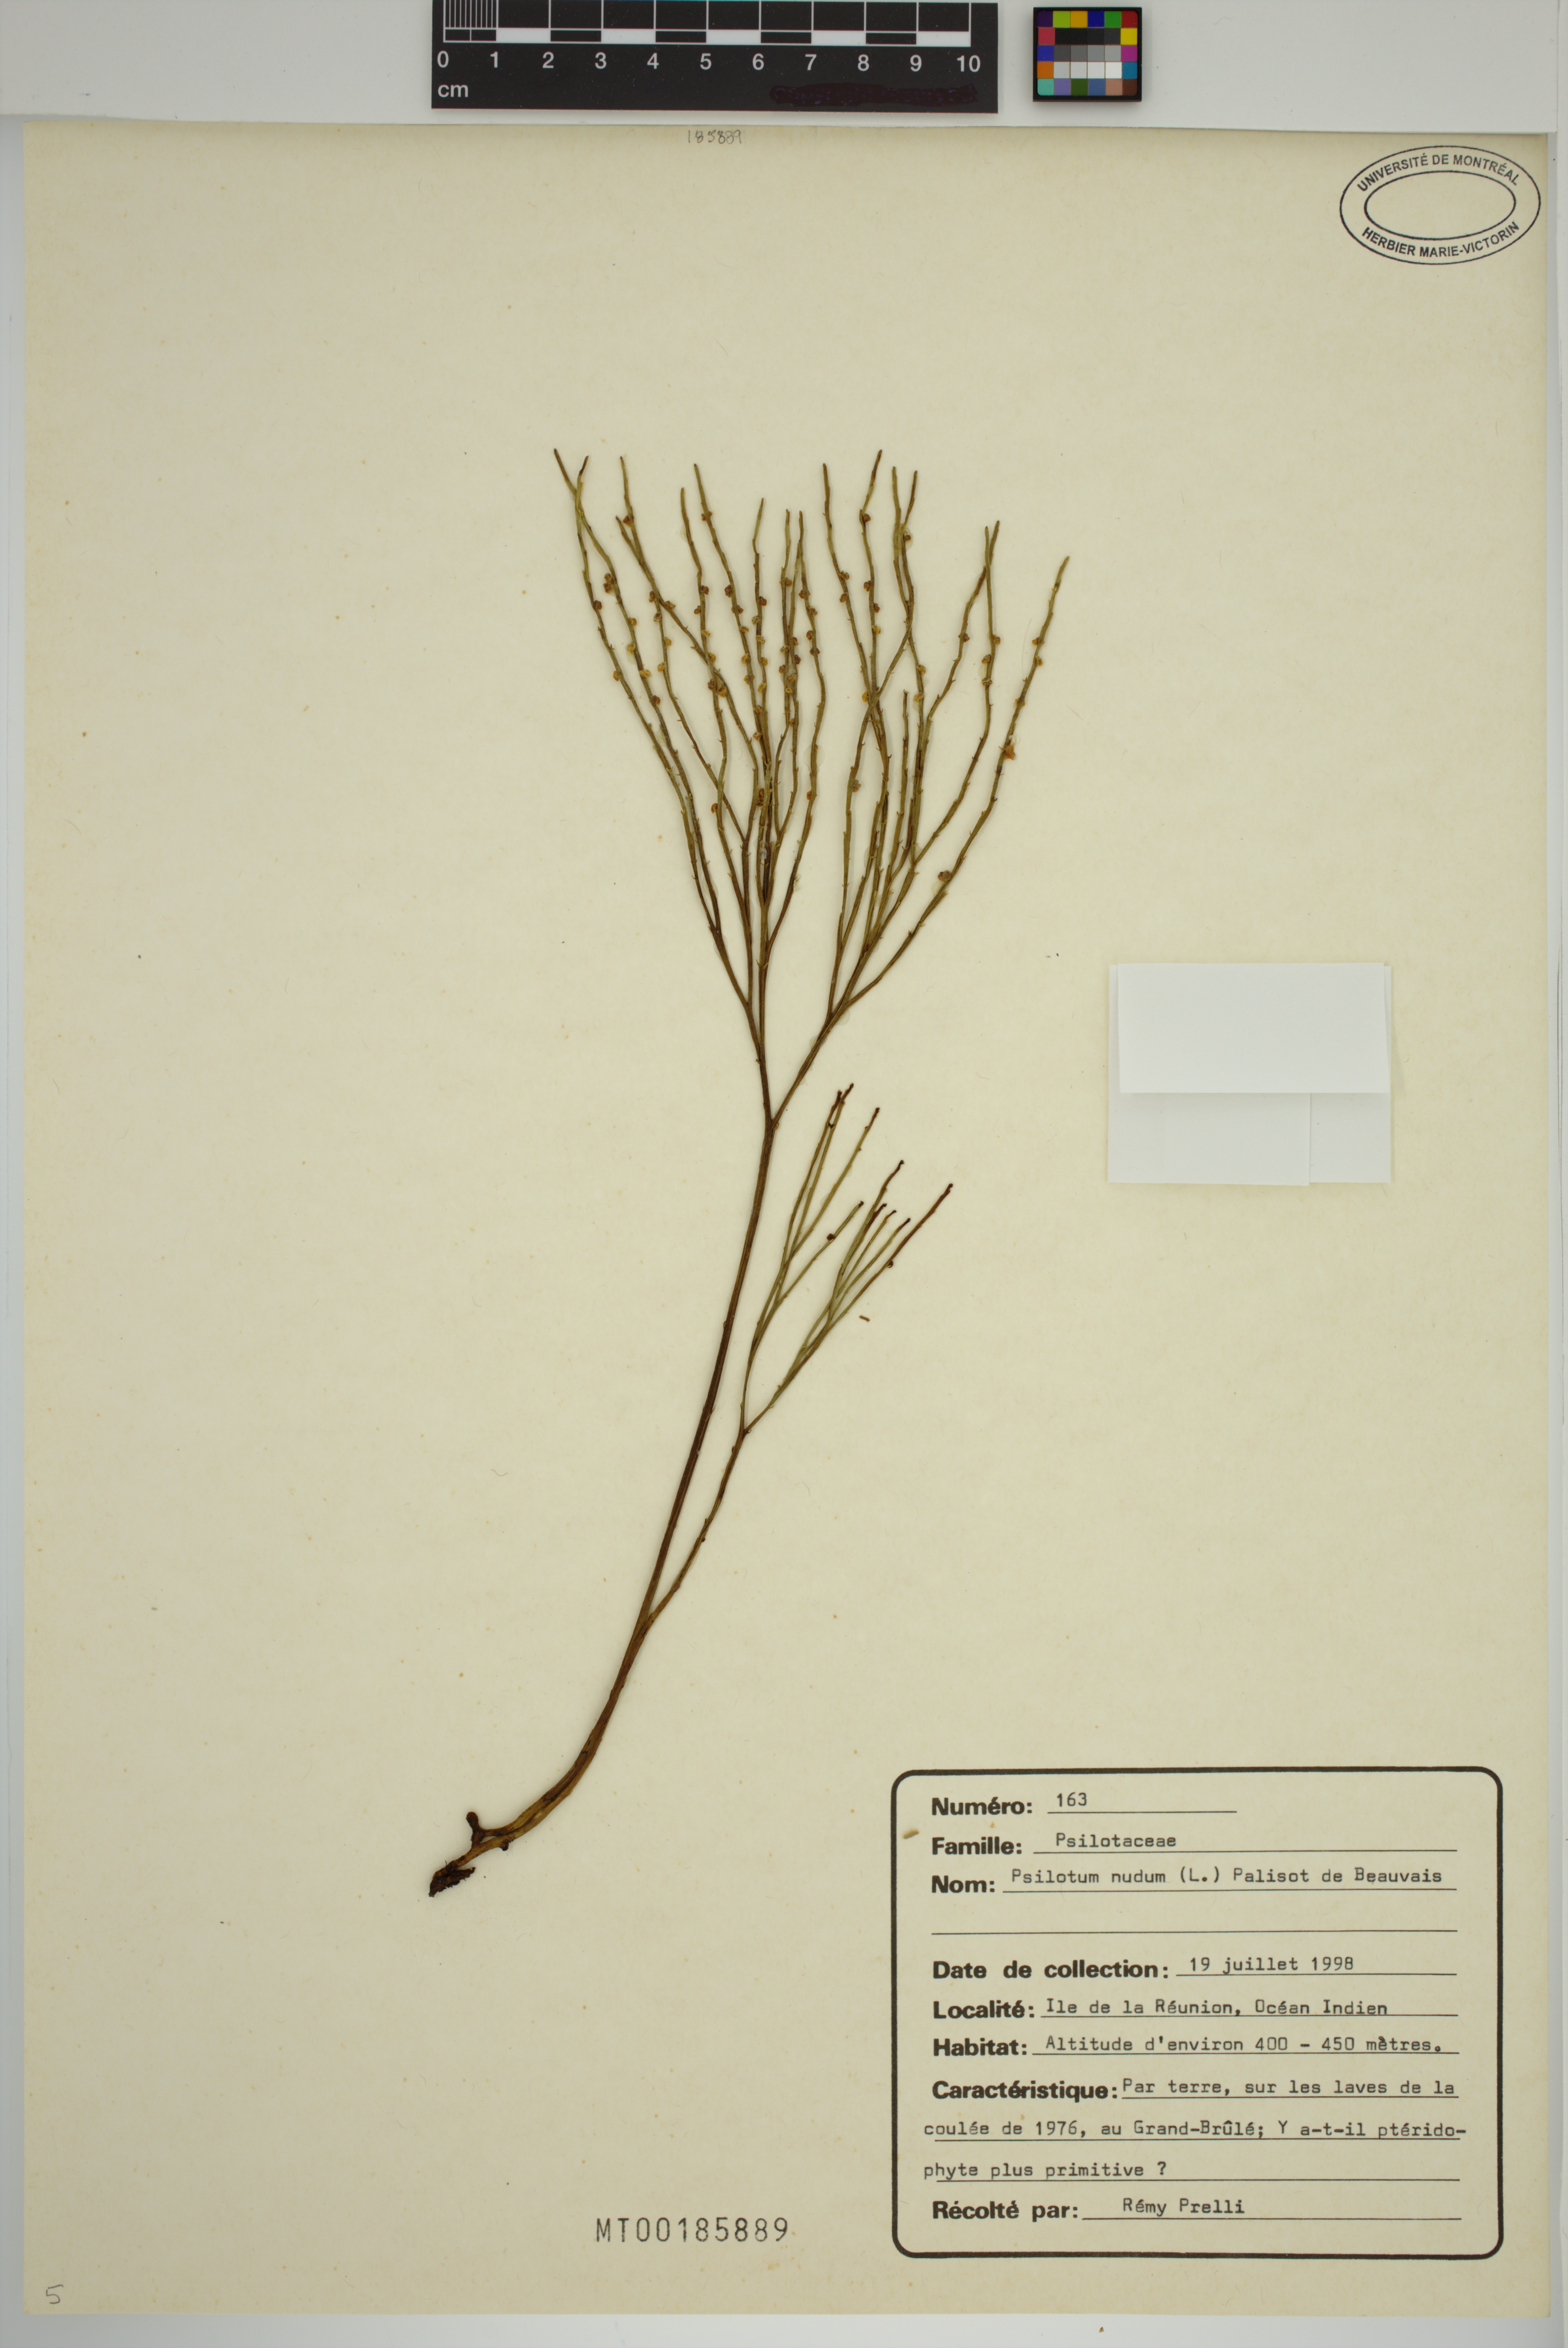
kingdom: Plantae
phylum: Tracheophyta
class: Polypodiopsida
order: Psilotales
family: Psilotaceae
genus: Psilotum
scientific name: Psilotum nudum
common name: Skeleton fork fern
